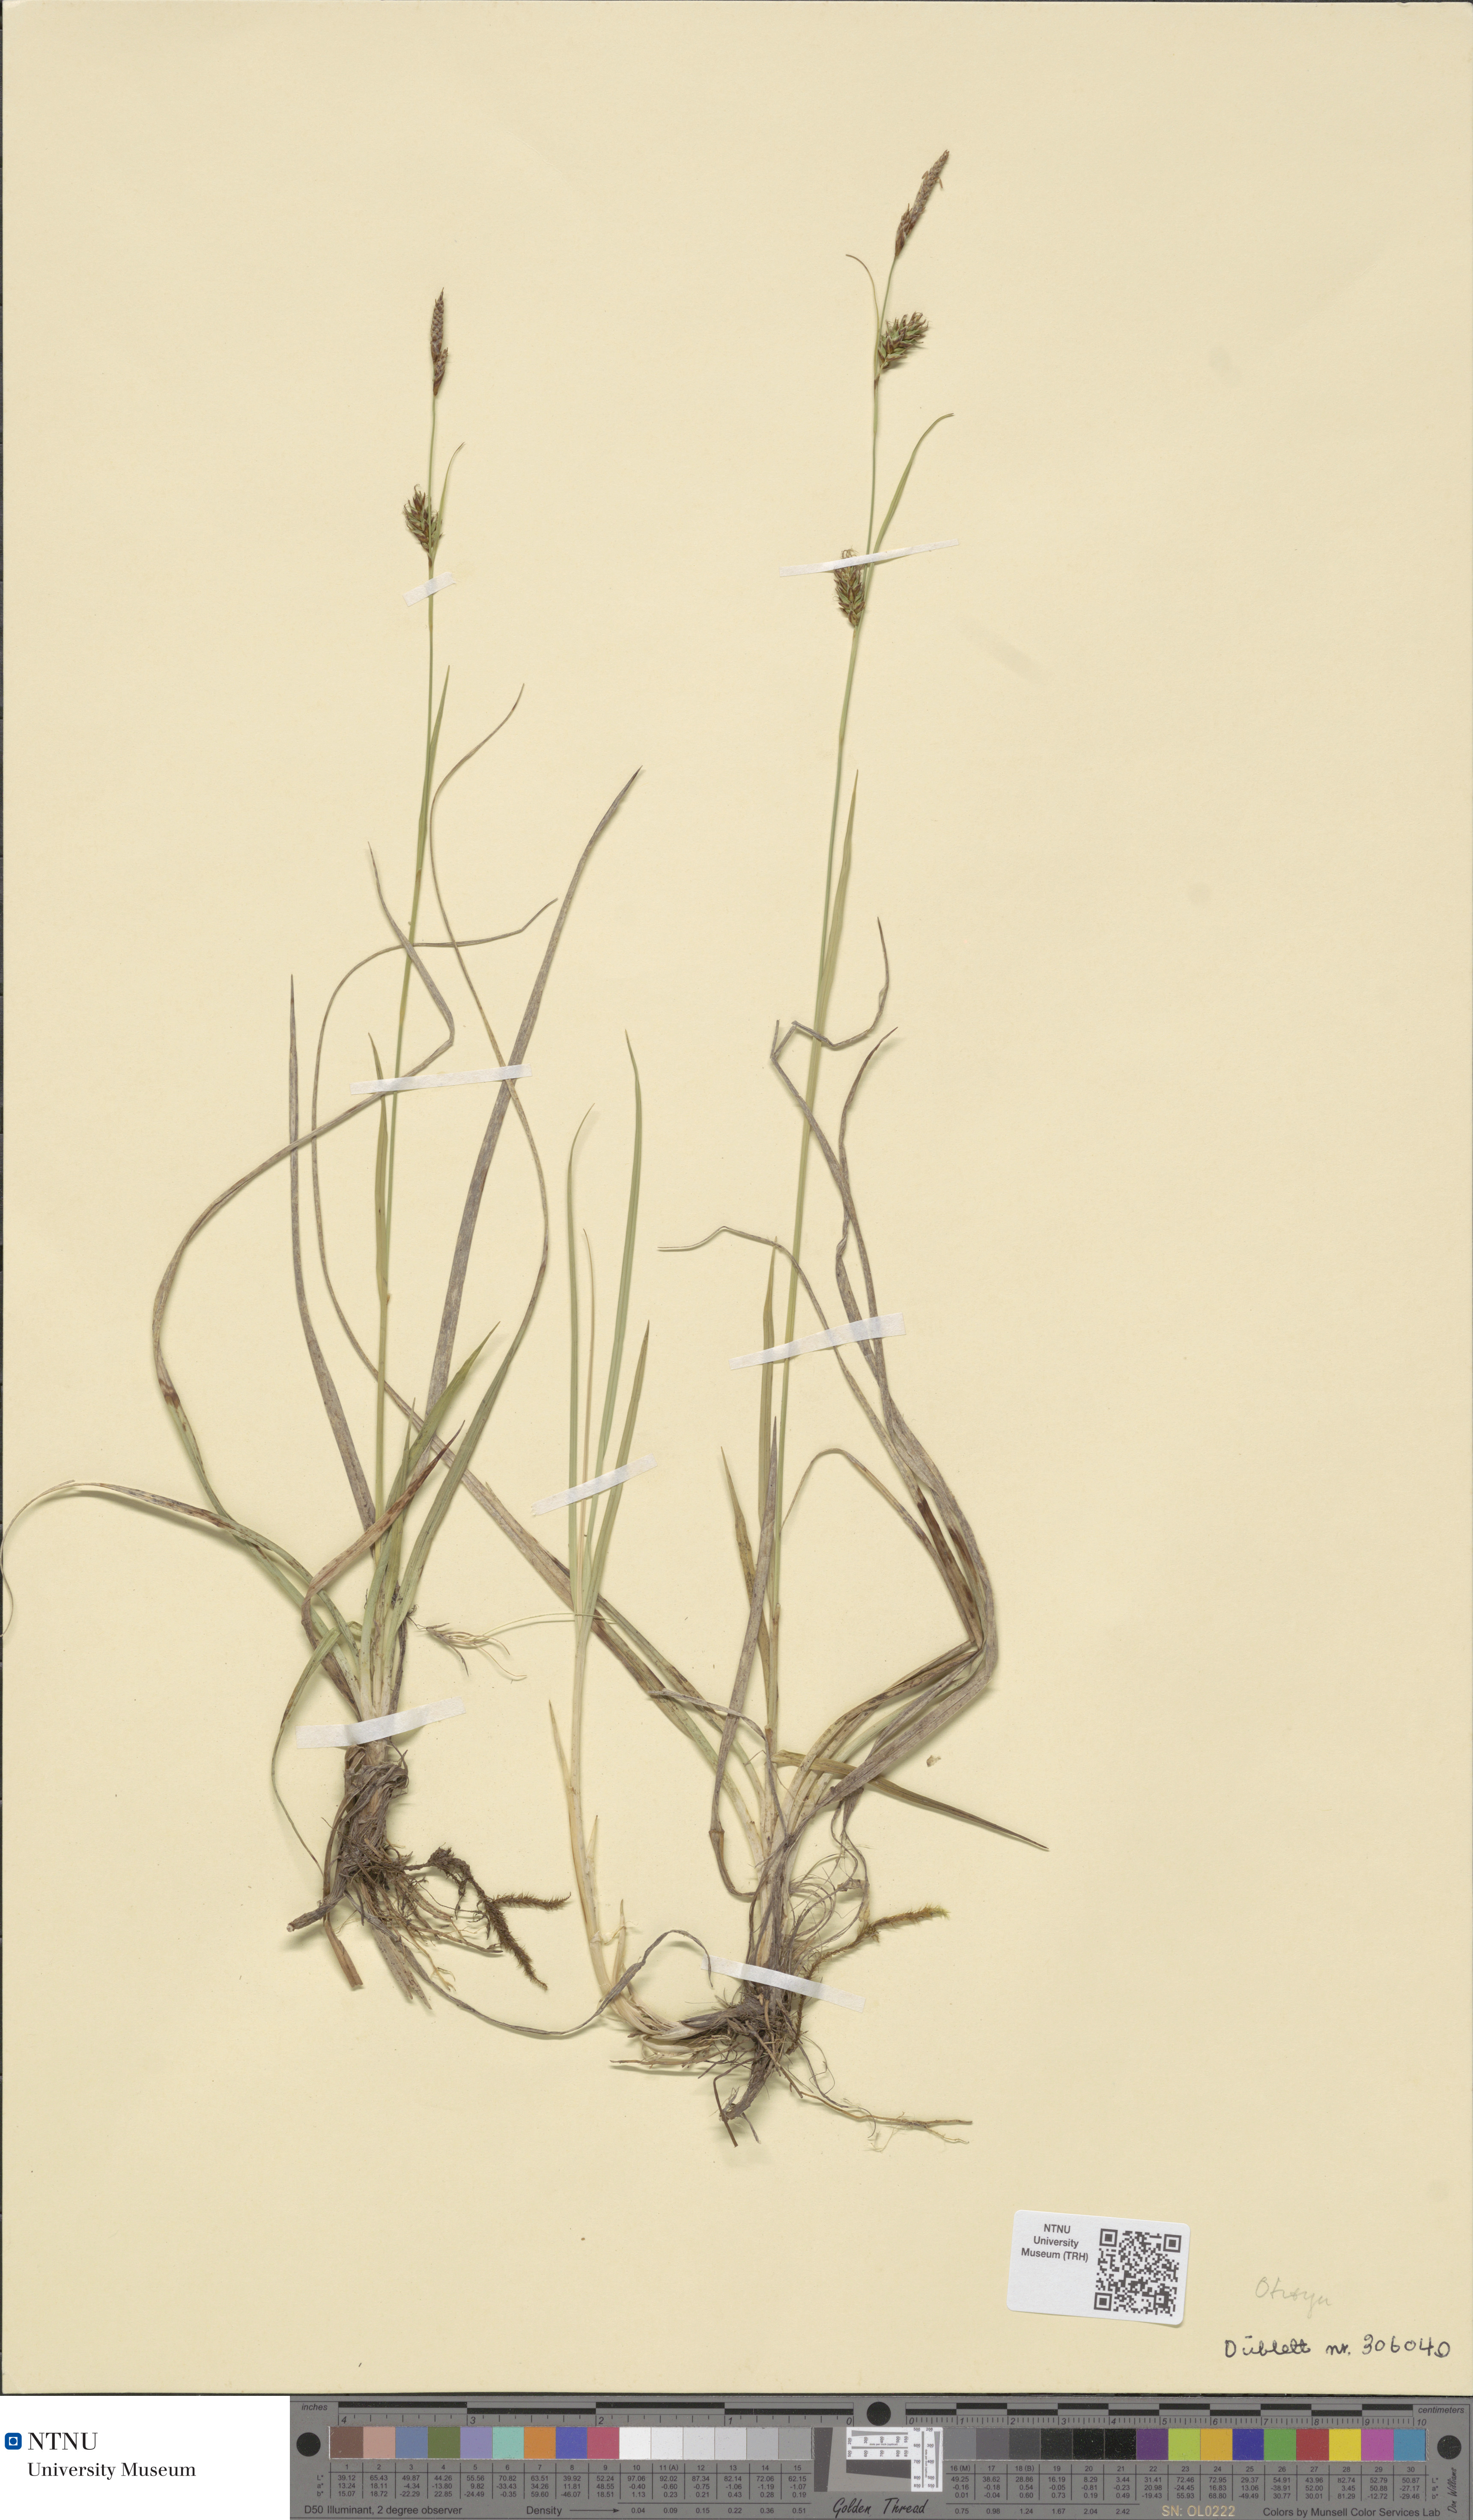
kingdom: Plantae
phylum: Tracheophyta
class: Liliopsida
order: Poales
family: Cyperaceae
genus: Carex
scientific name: Carex hostiana
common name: Tawny sedge
